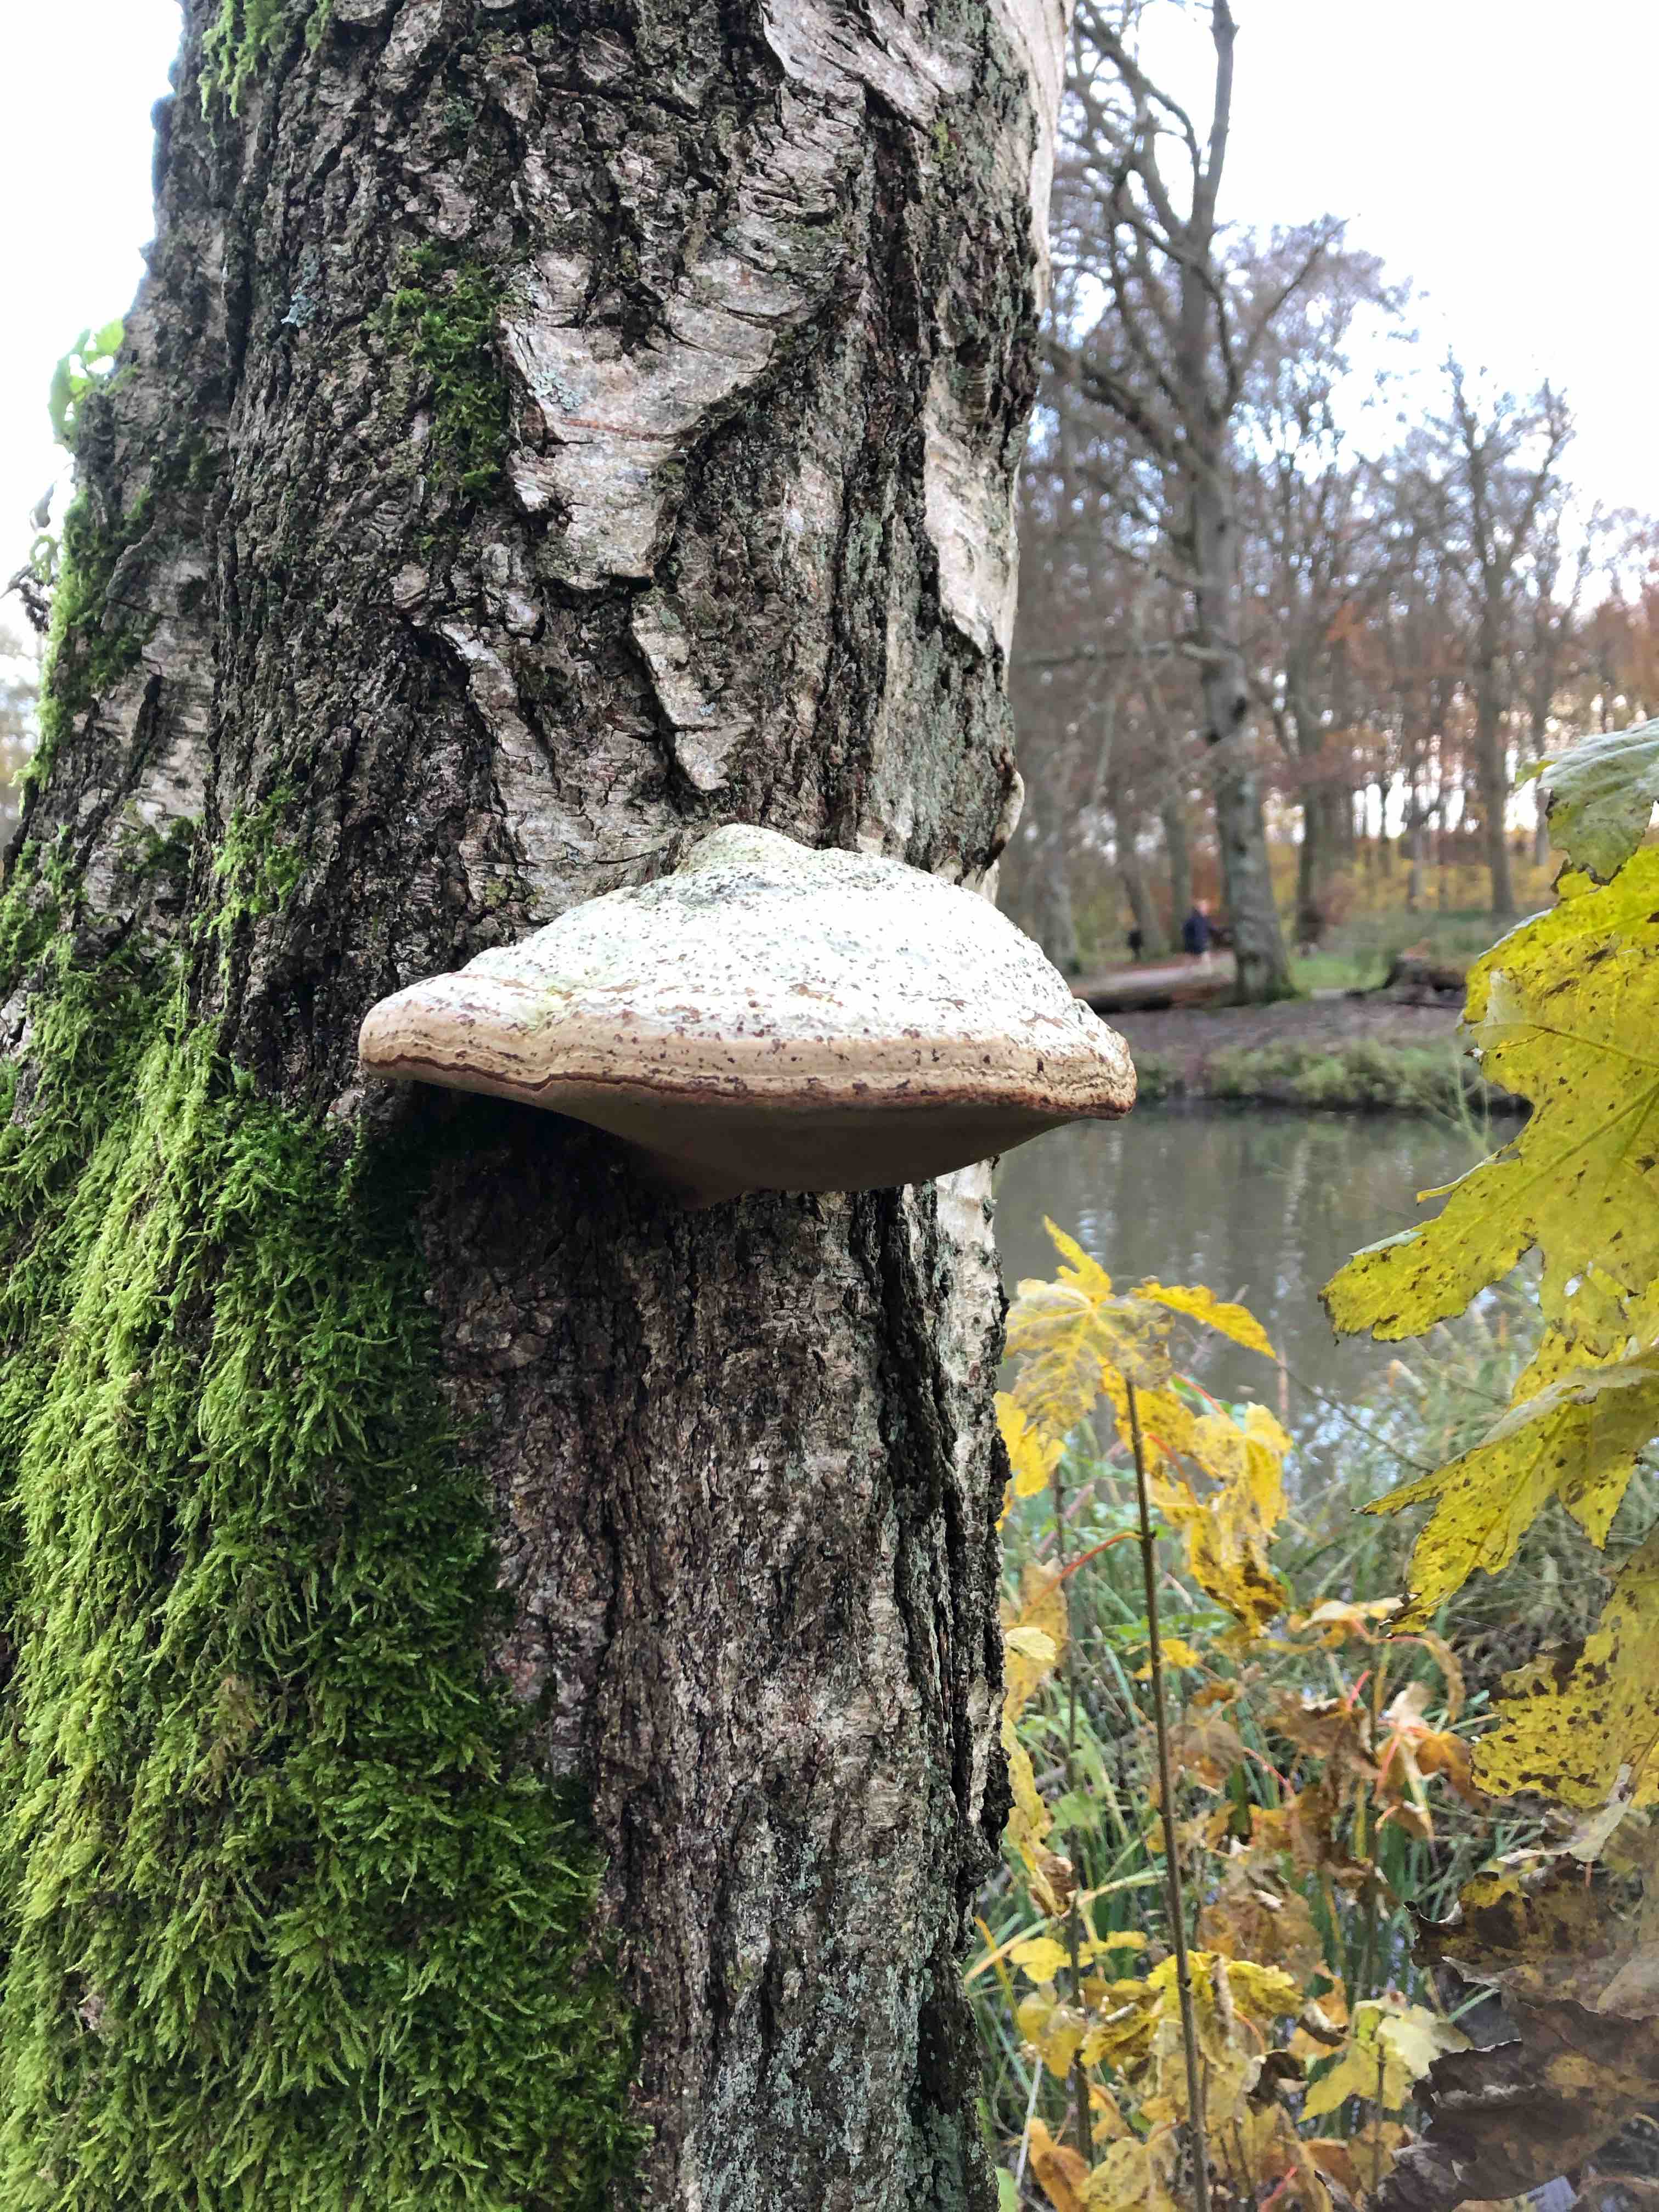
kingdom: Fungi
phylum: Basidiomycota
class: Agaricomycetes
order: Polyporales
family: Polyporaceae
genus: Fomes
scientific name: Fomes fomentarius
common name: tøndersvamp
